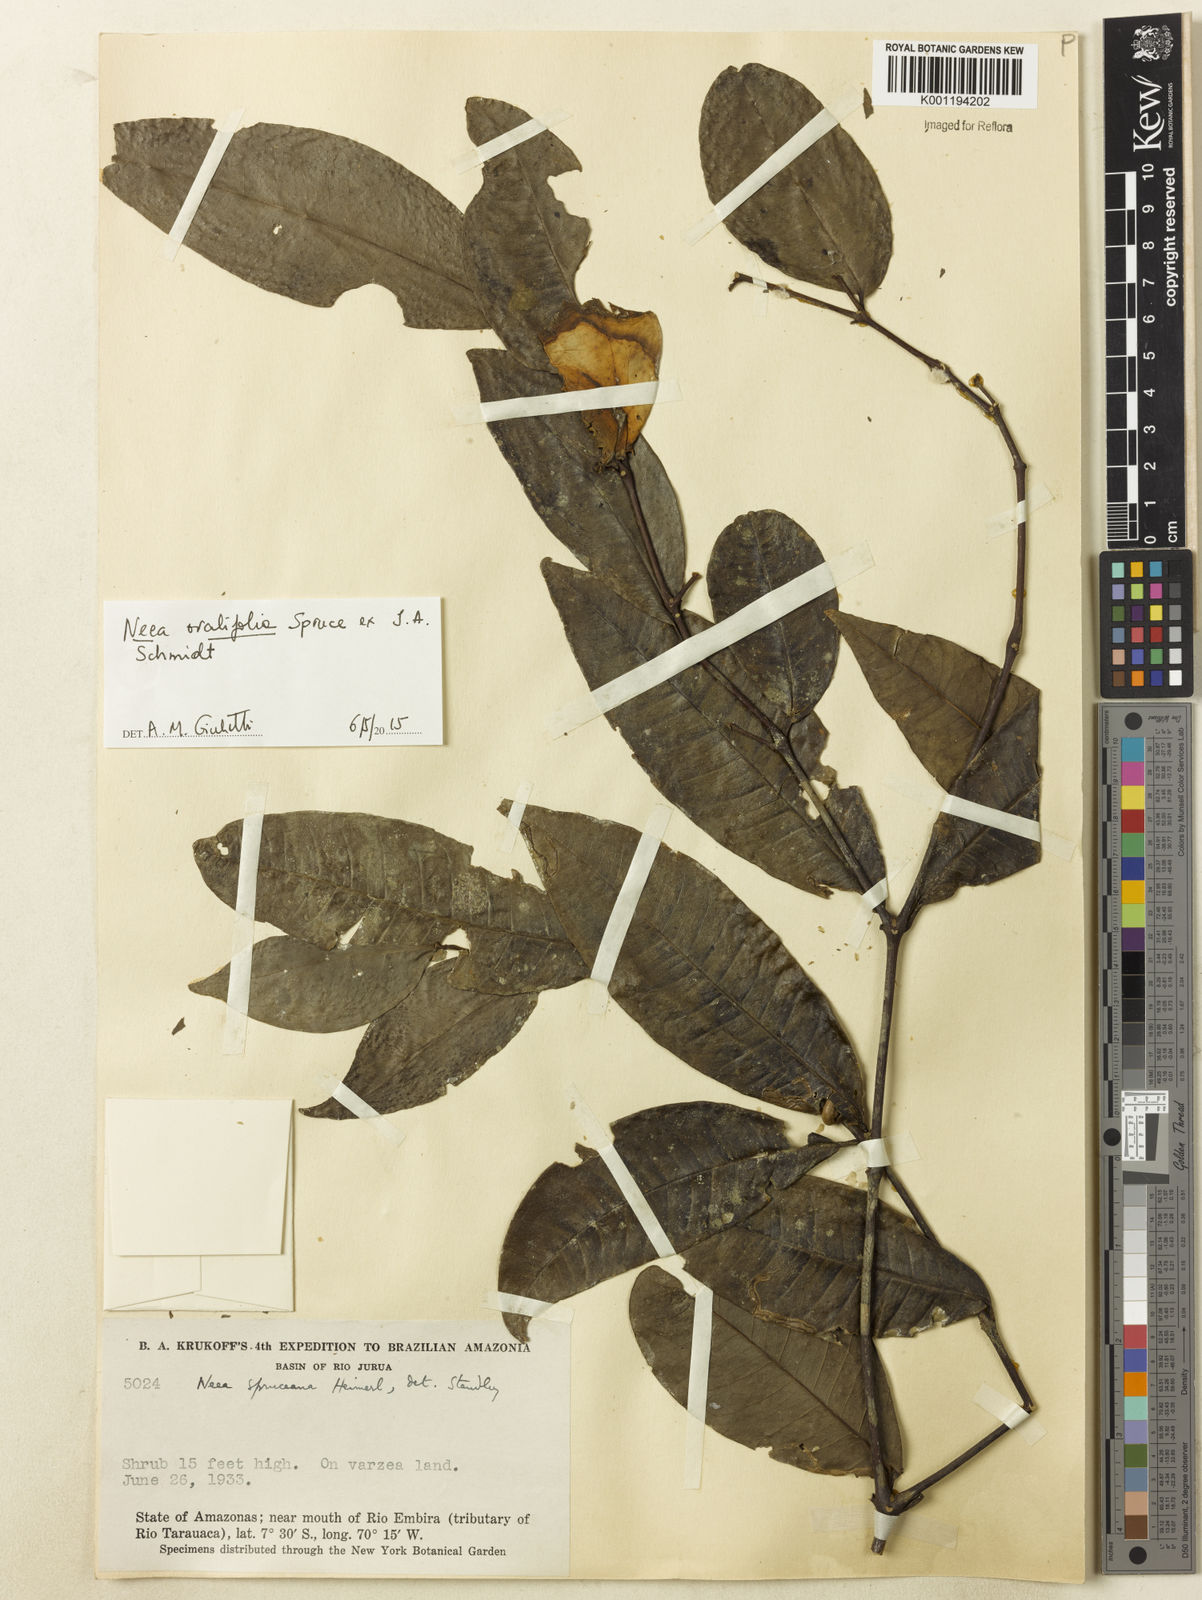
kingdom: Plantae
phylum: Tracheophyta
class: Magnoliopsida
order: Caryophyllales
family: Nyctaginaceae
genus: Neea
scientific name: Neea ovalifolia
